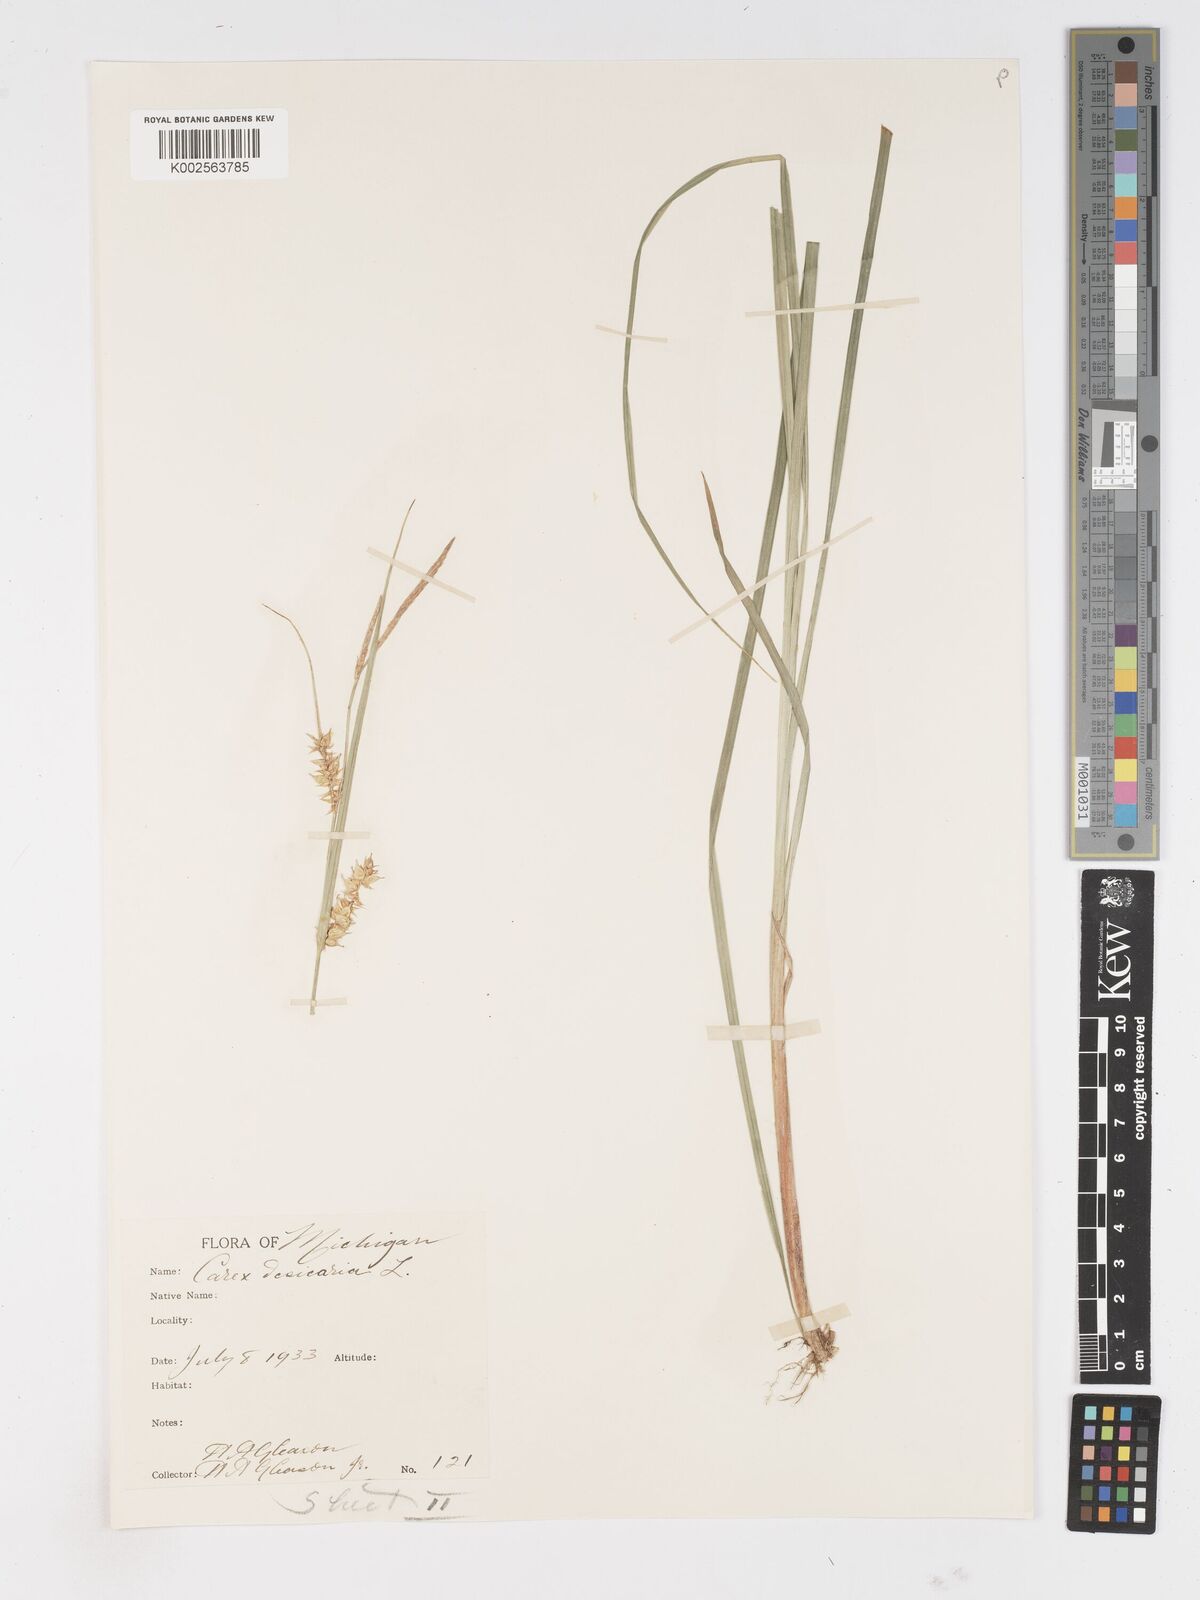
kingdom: Plantae
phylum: Tracheophyta
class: Liliopsida
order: Poales
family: Cyperaceae
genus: Carex
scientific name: Carex vesicaria
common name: Bladder-sedge
